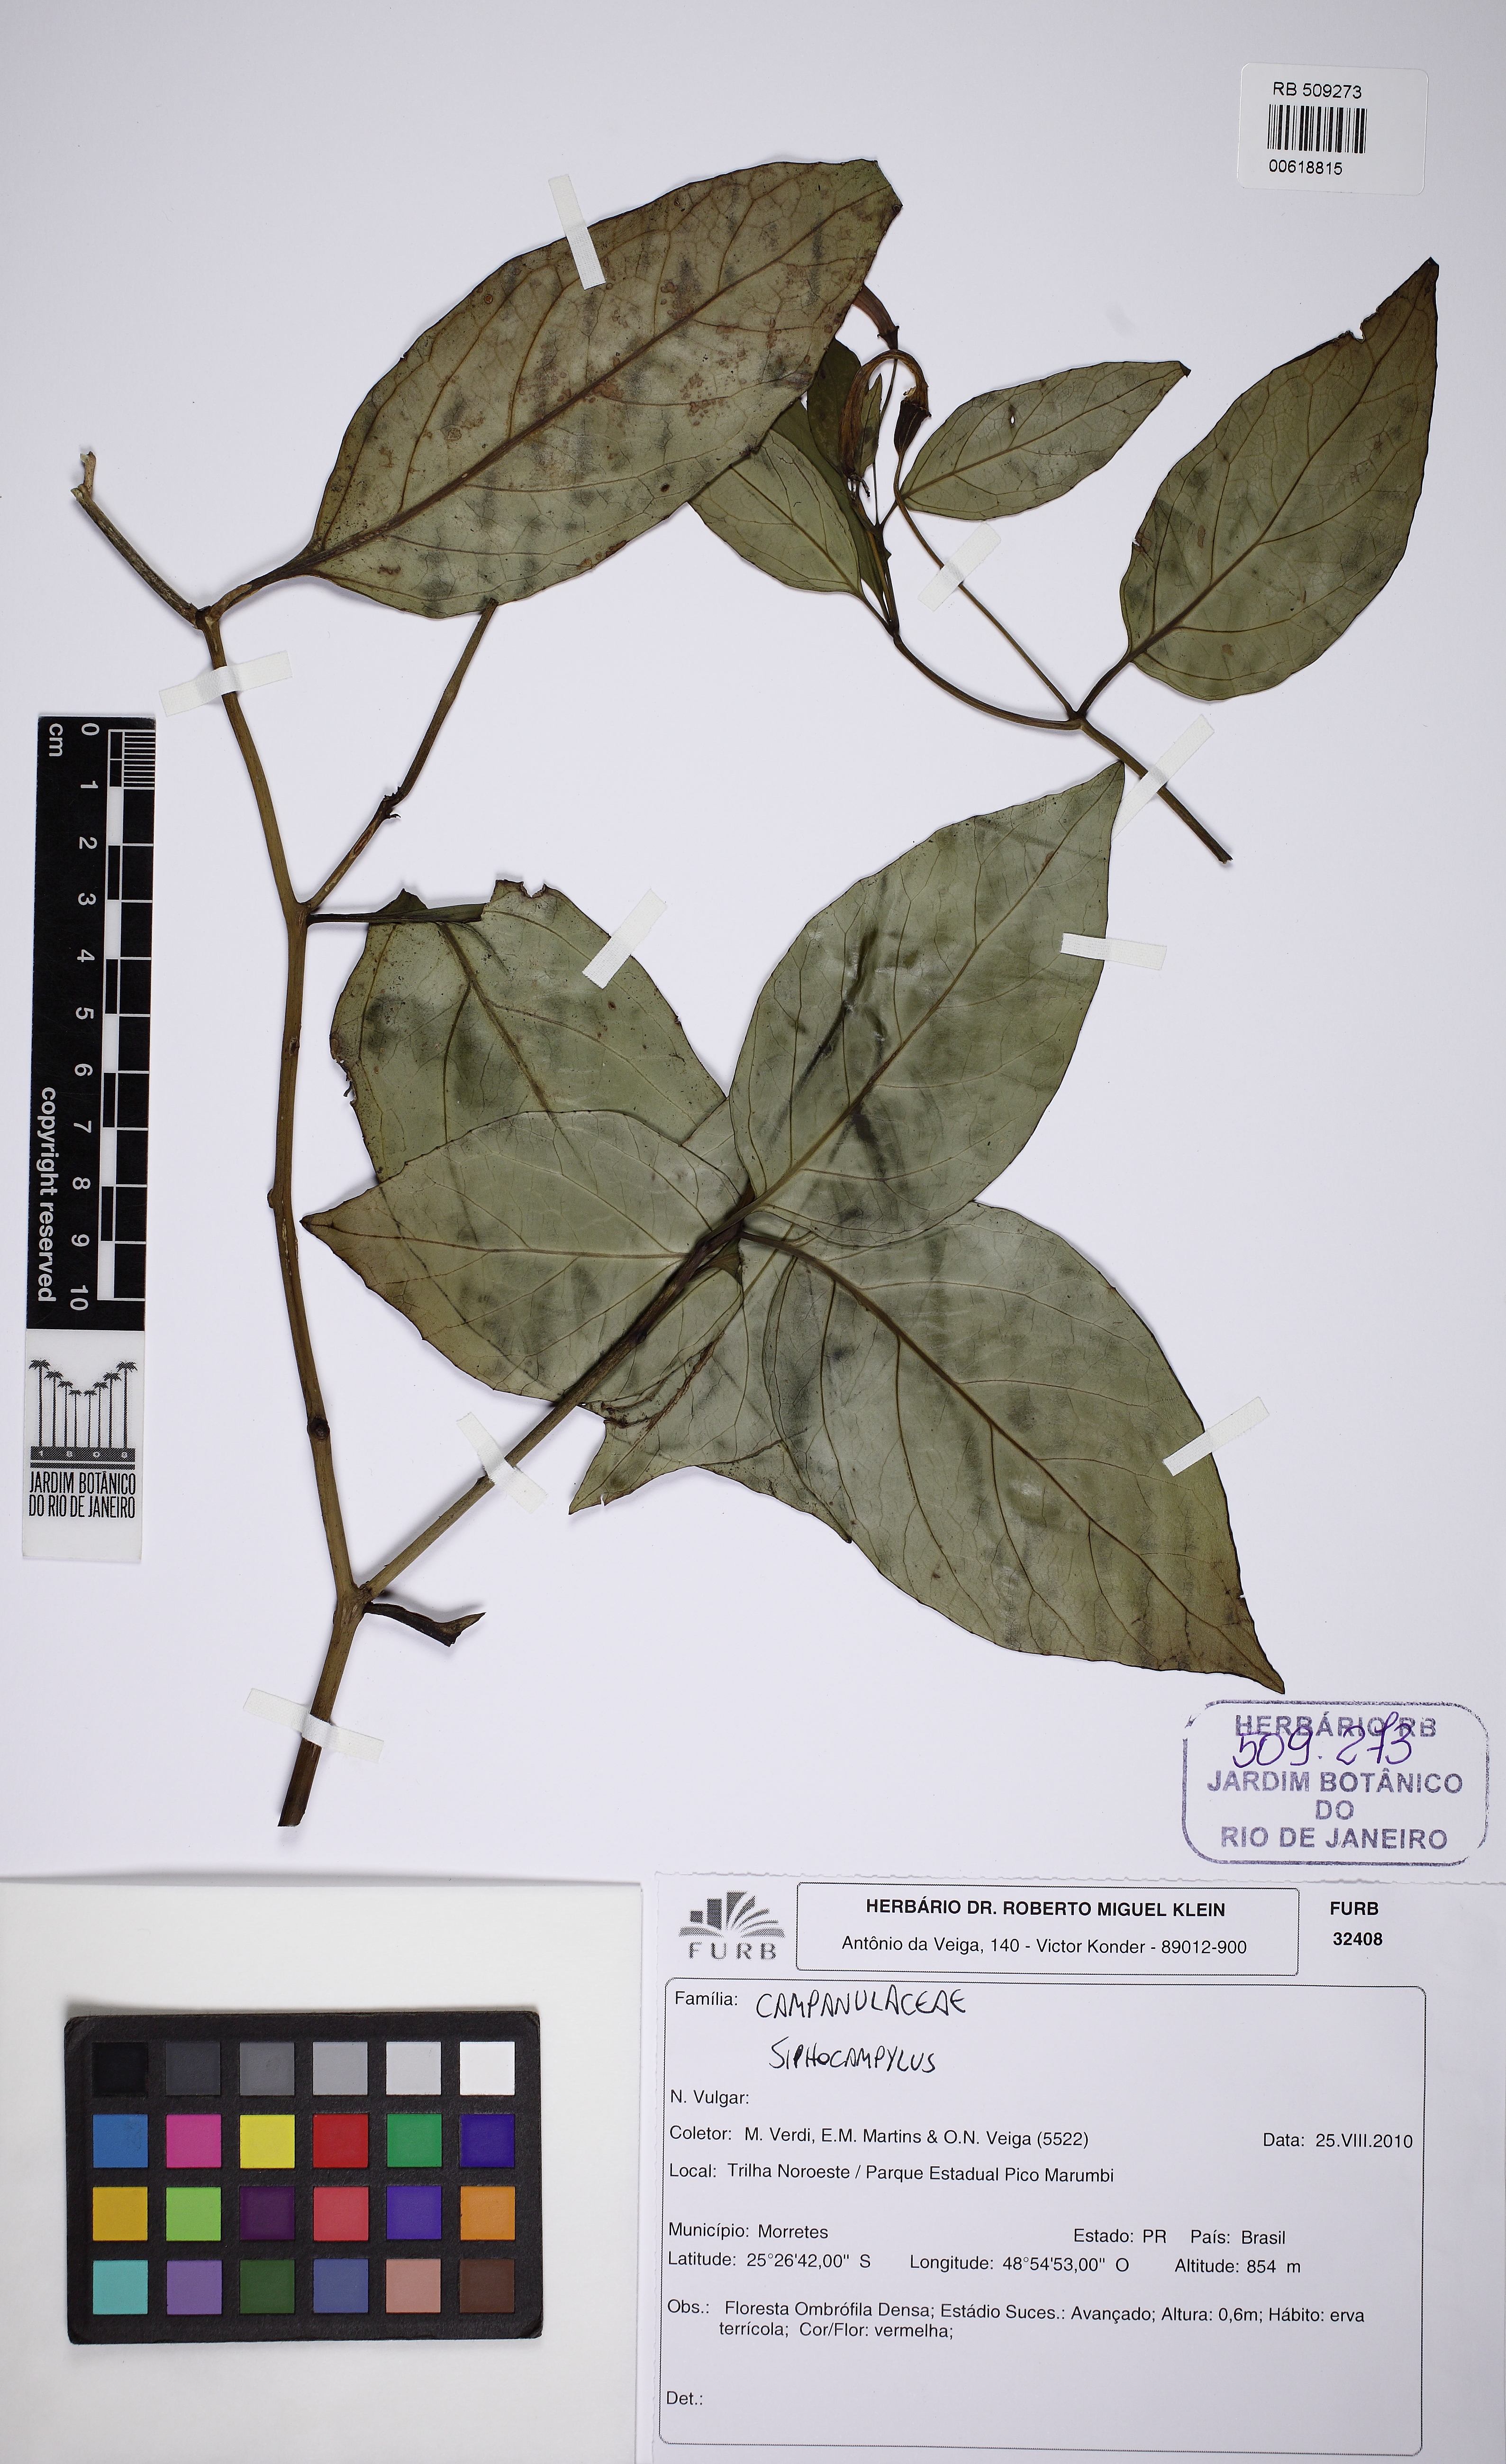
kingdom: Plantae
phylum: Tracheophyta
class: Magnoliopsida
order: Asterales
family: Campanulaceae
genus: Siphocampylus
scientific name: Siphocampylus fulgens
